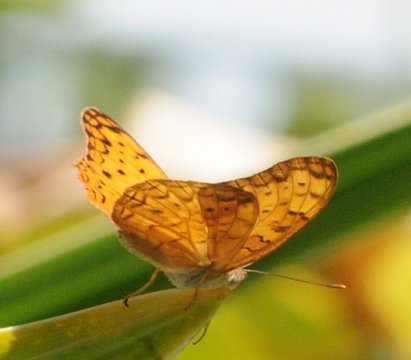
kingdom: Animalia
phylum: Arthropoda
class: Insecta
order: Lepidoptera
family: Nymphalidae
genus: Phalanta
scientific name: Phalanta phalantha
